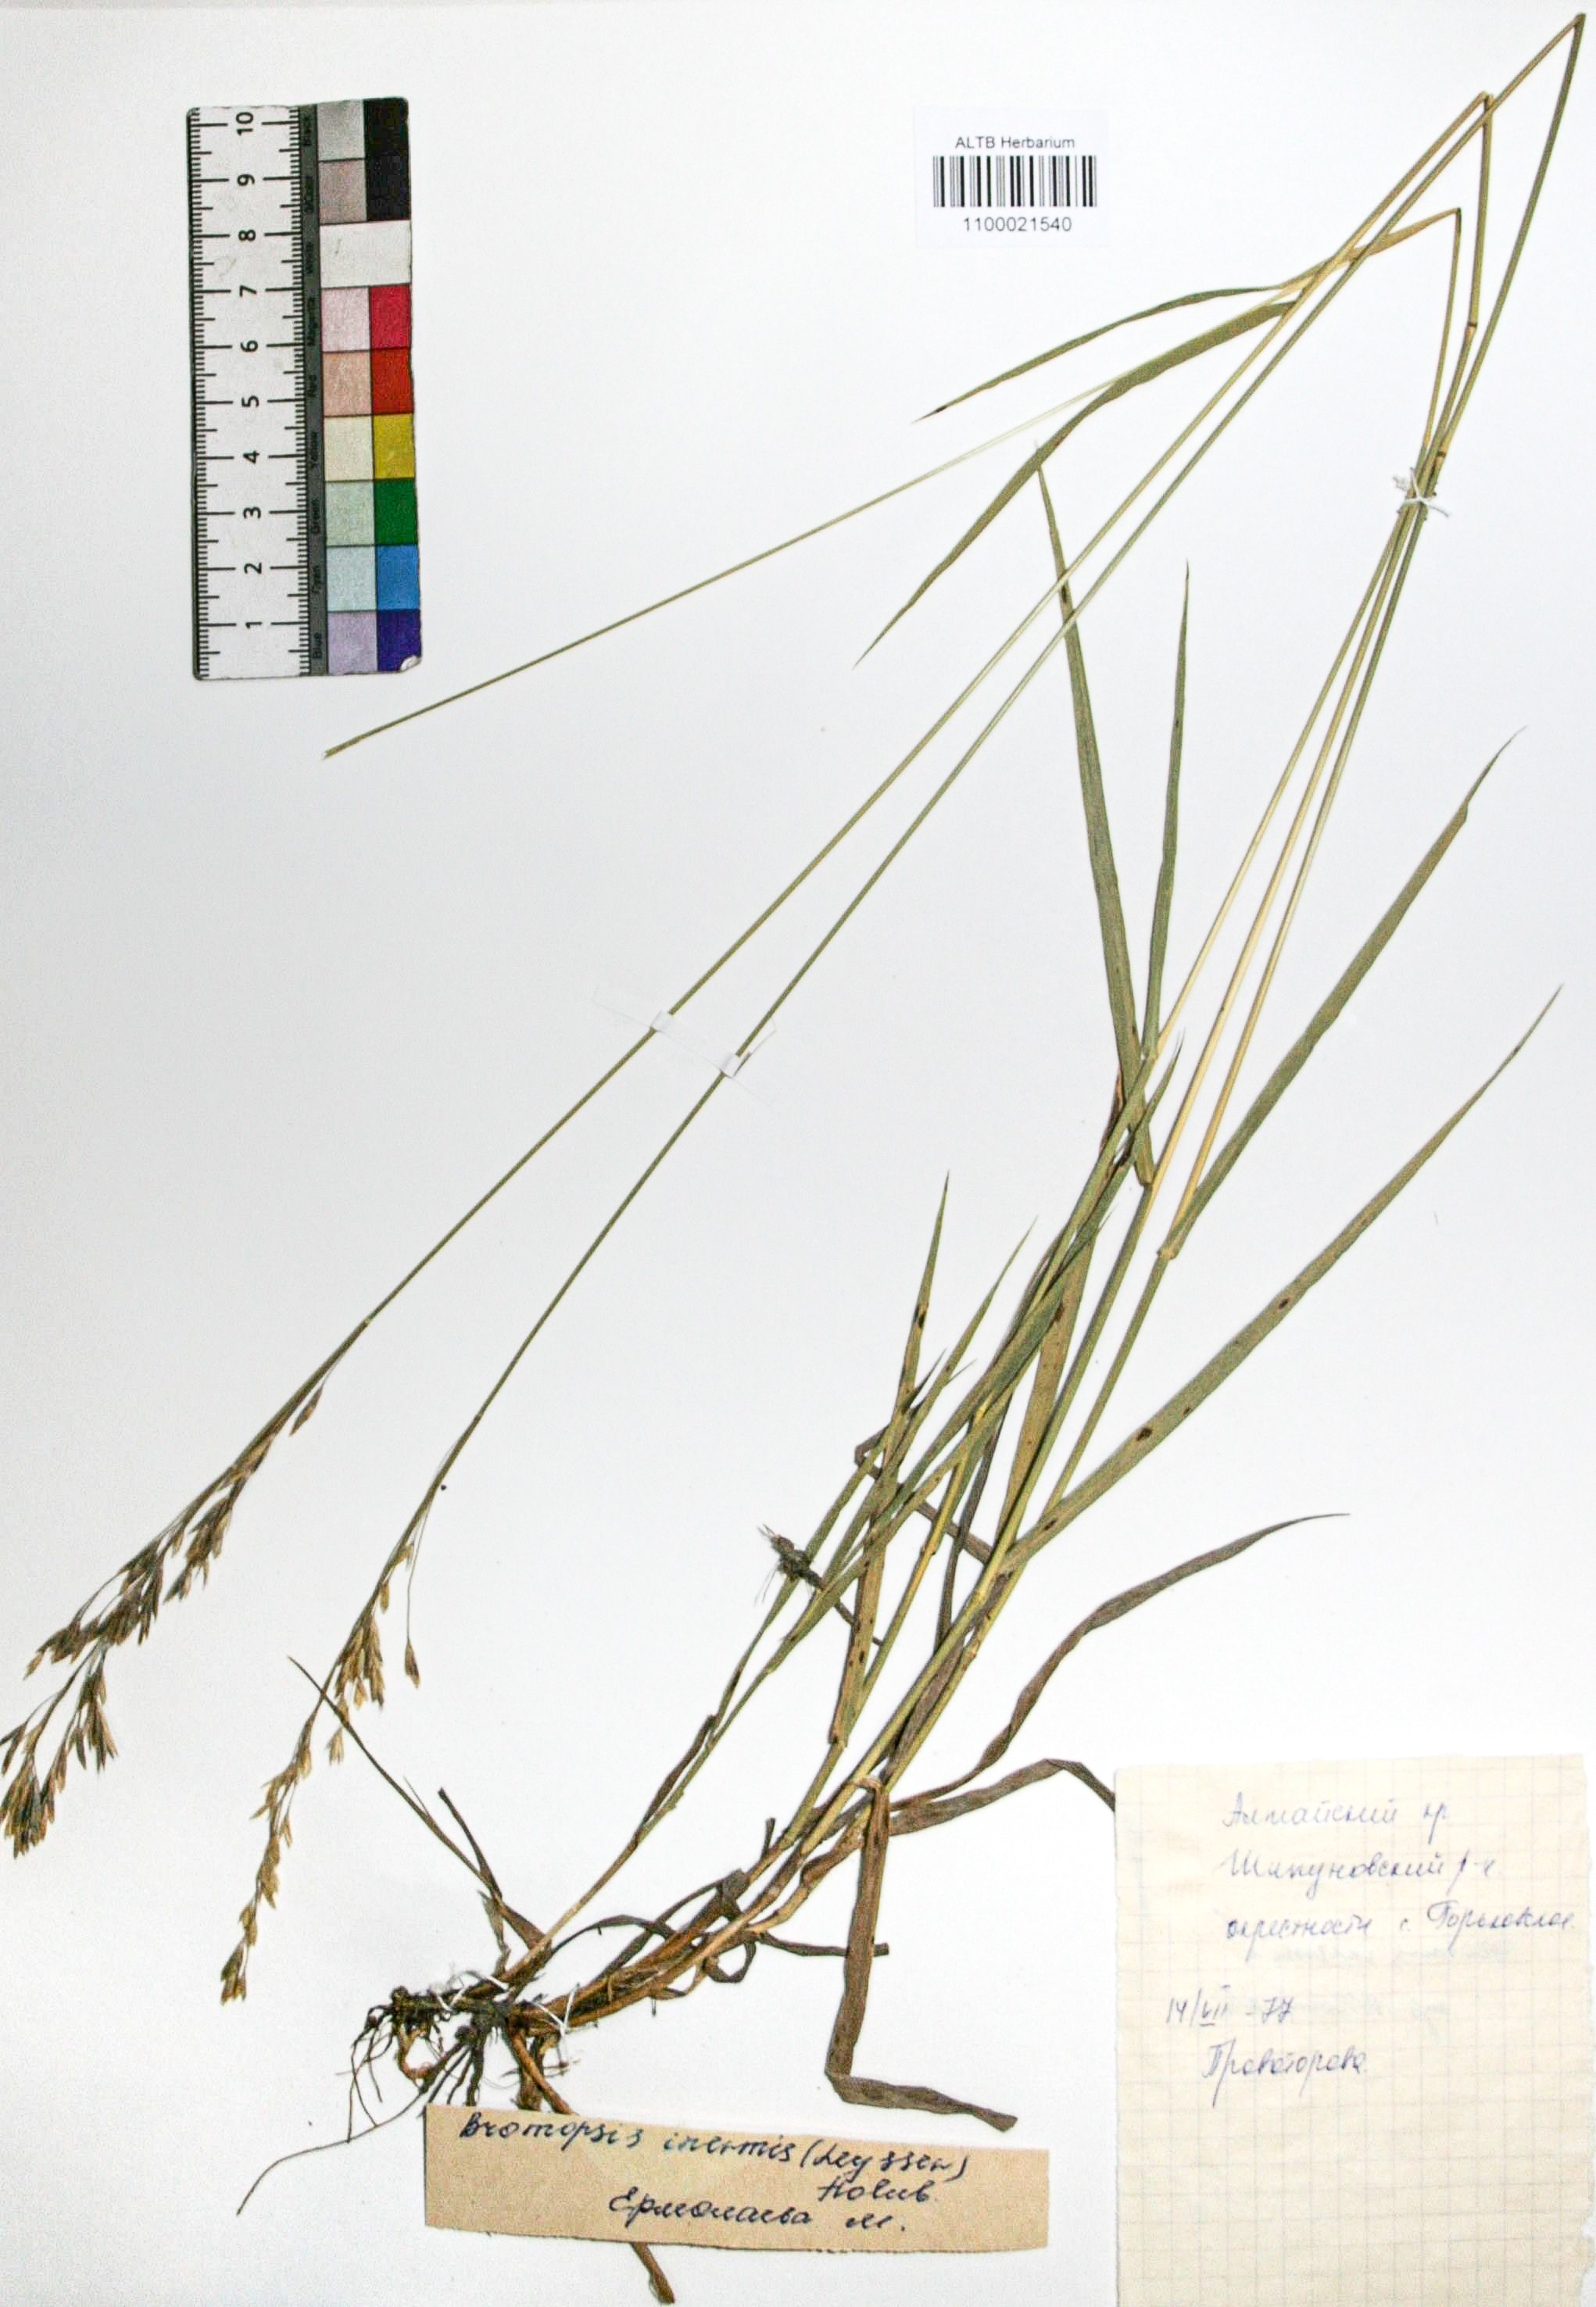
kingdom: Plantae
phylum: Tracheophyta
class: Liliopsida
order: Poales
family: Poaceae
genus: Bromus
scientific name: Bromus inermis
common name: Smooth brome
